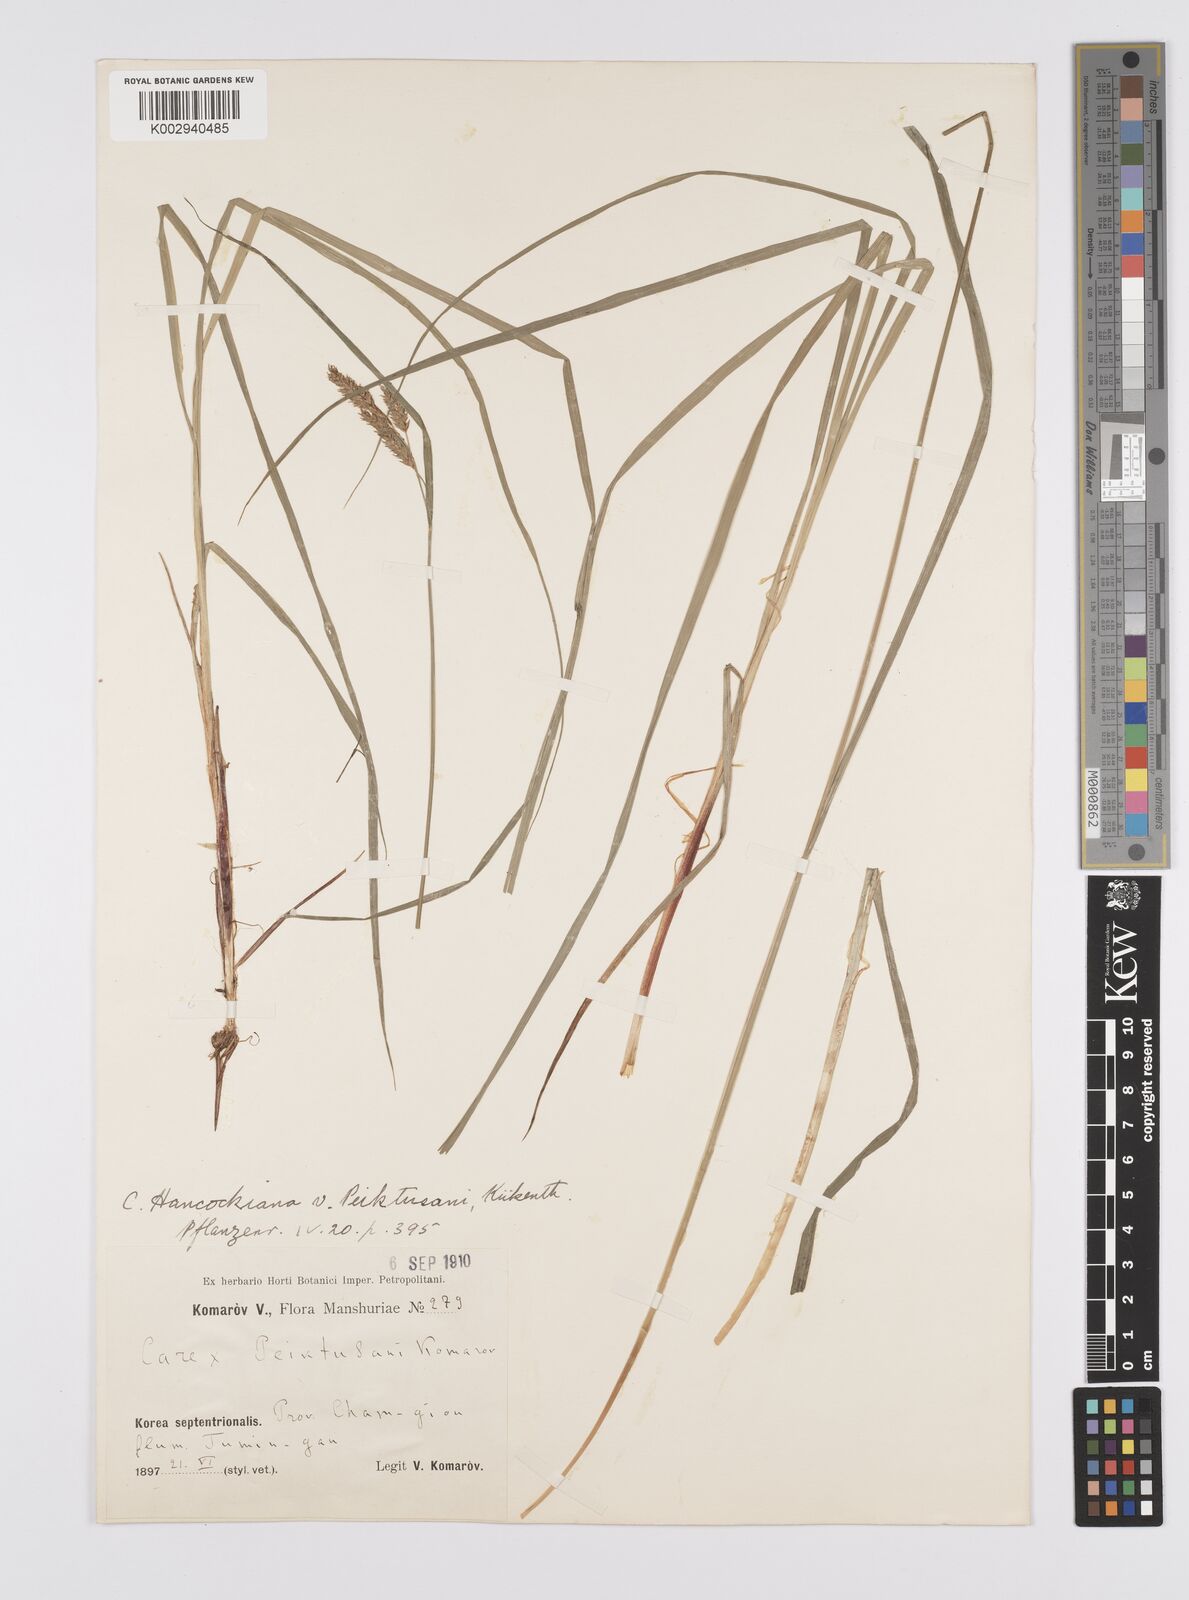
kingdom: Plantae
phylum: Tracheophyta
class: Liliopsida
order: Poales
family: Cyperaceae
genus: Carex
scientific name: Carex hancockiana
